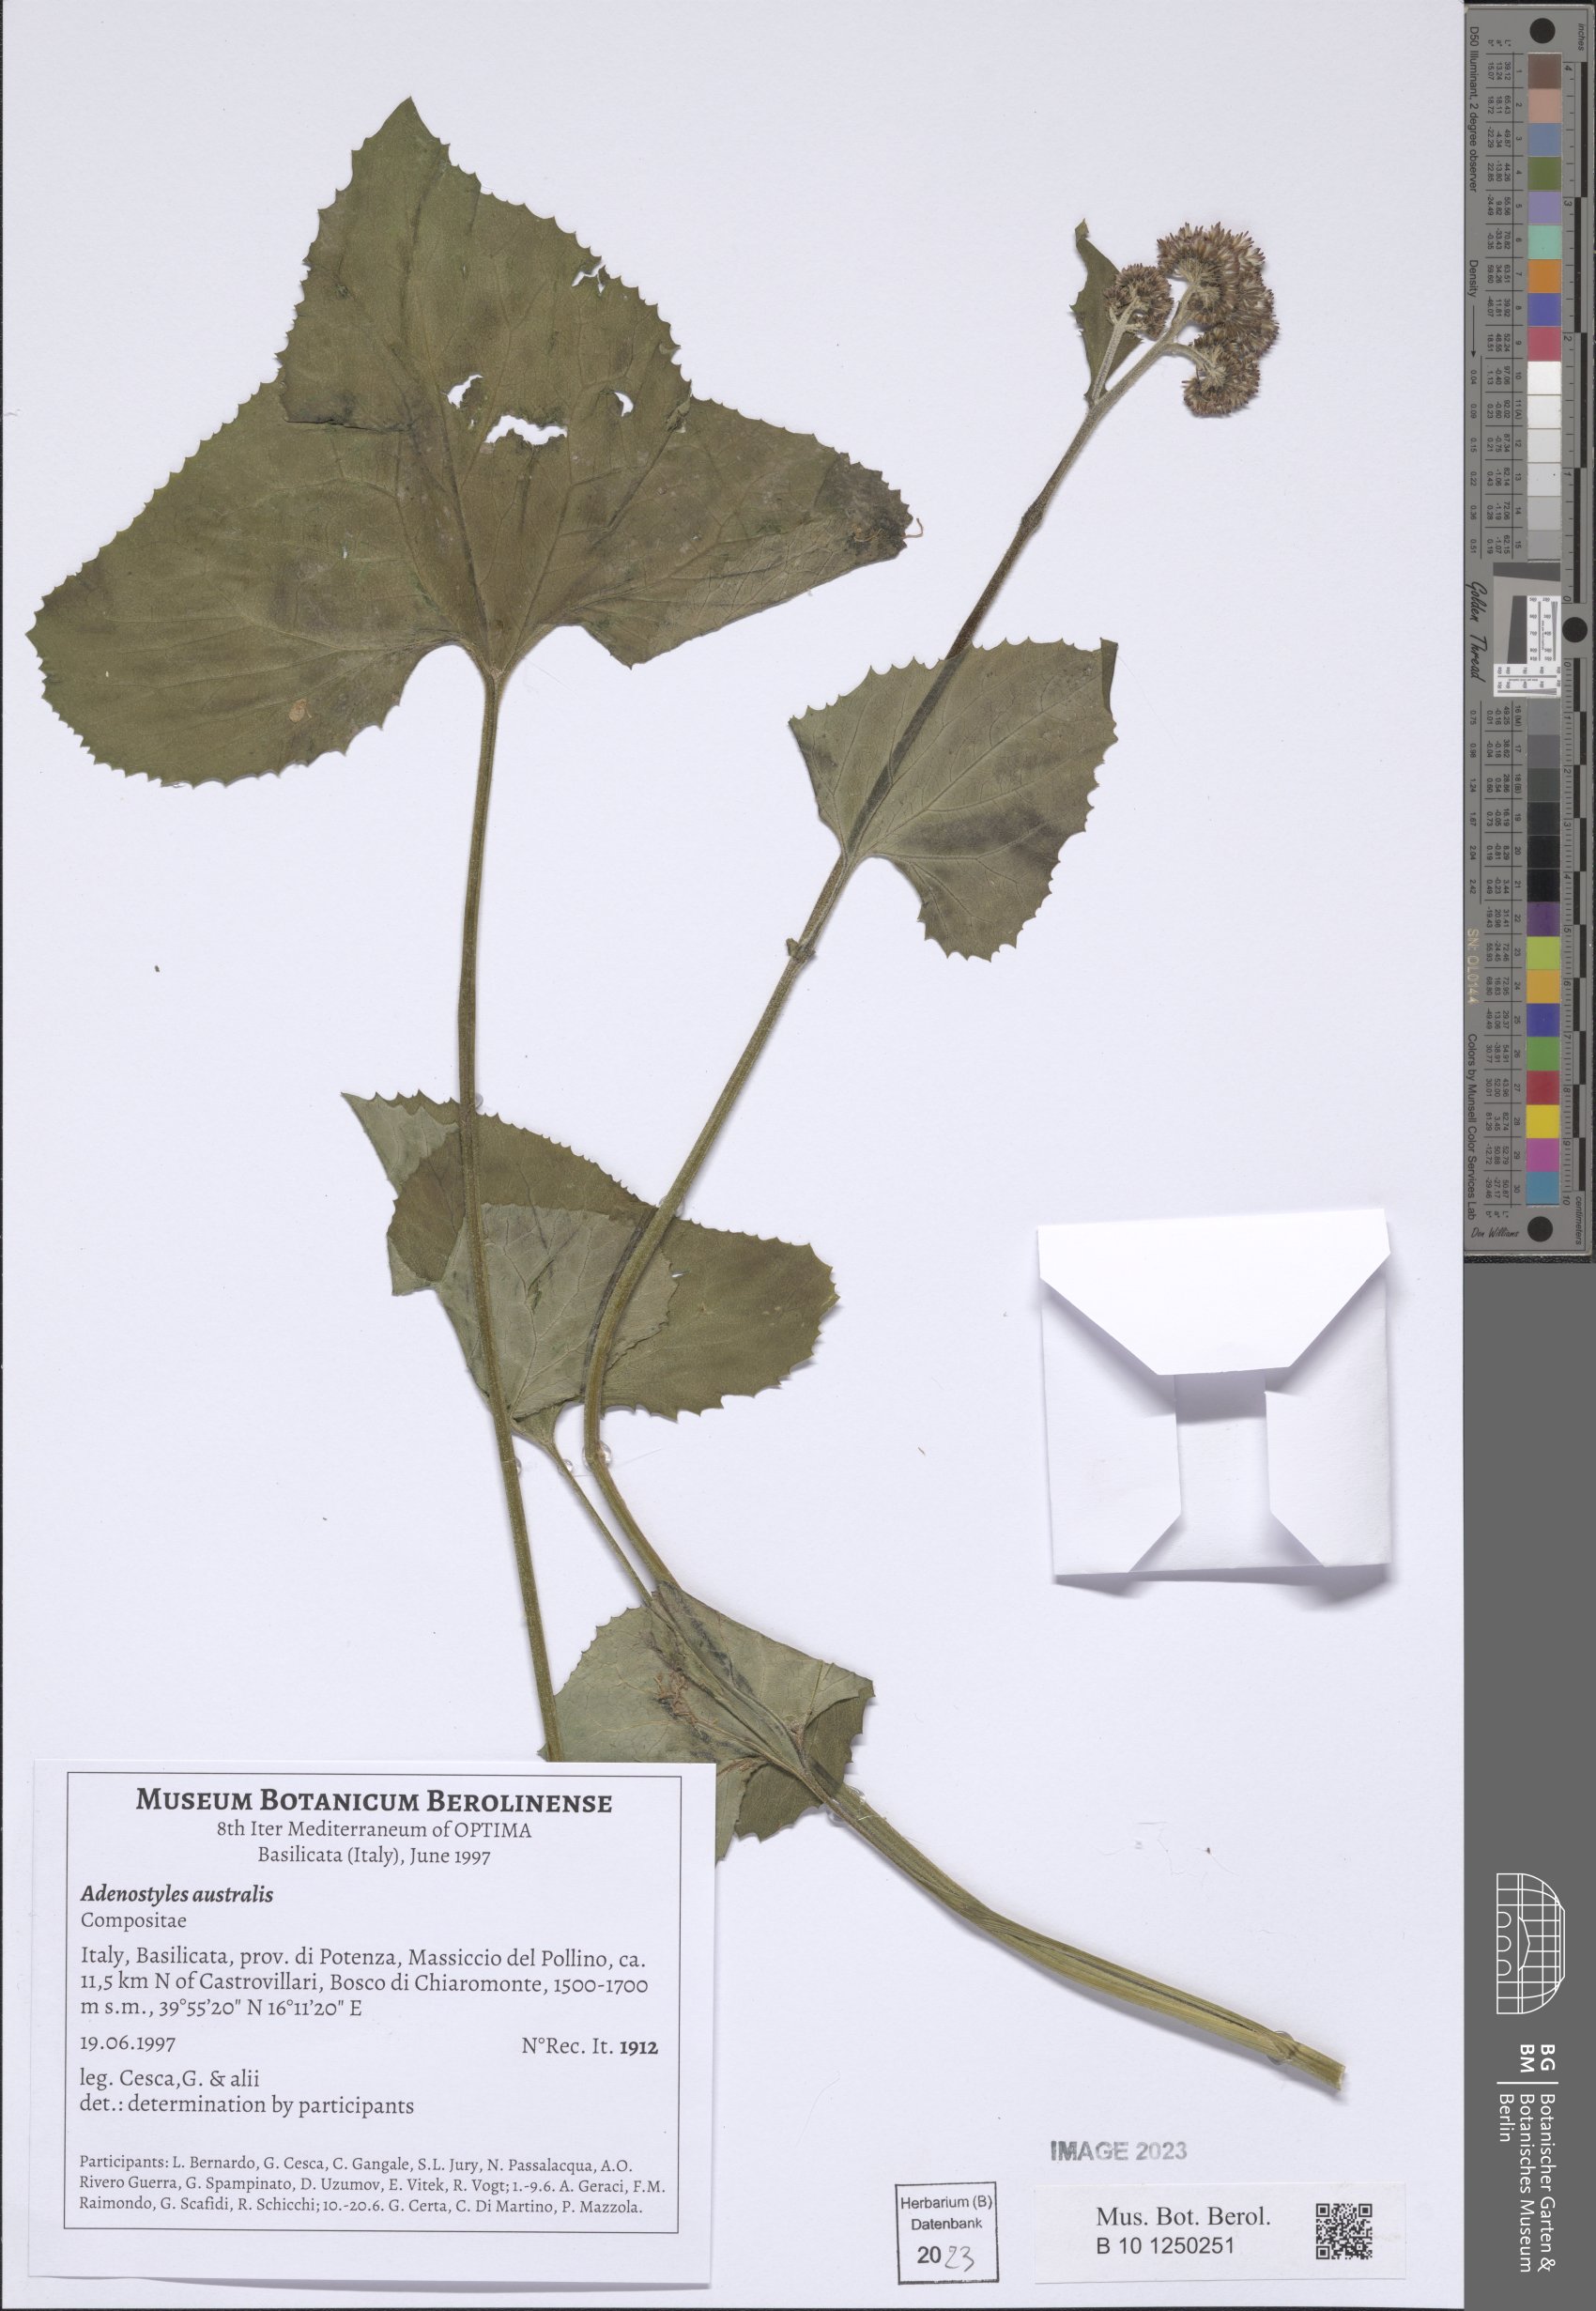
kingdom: Plantae
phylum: Tracheophyta
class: Magnoliopsida
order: Asterales
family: Asteraceae
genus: Adenostyles
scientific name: Adenostyles australis
